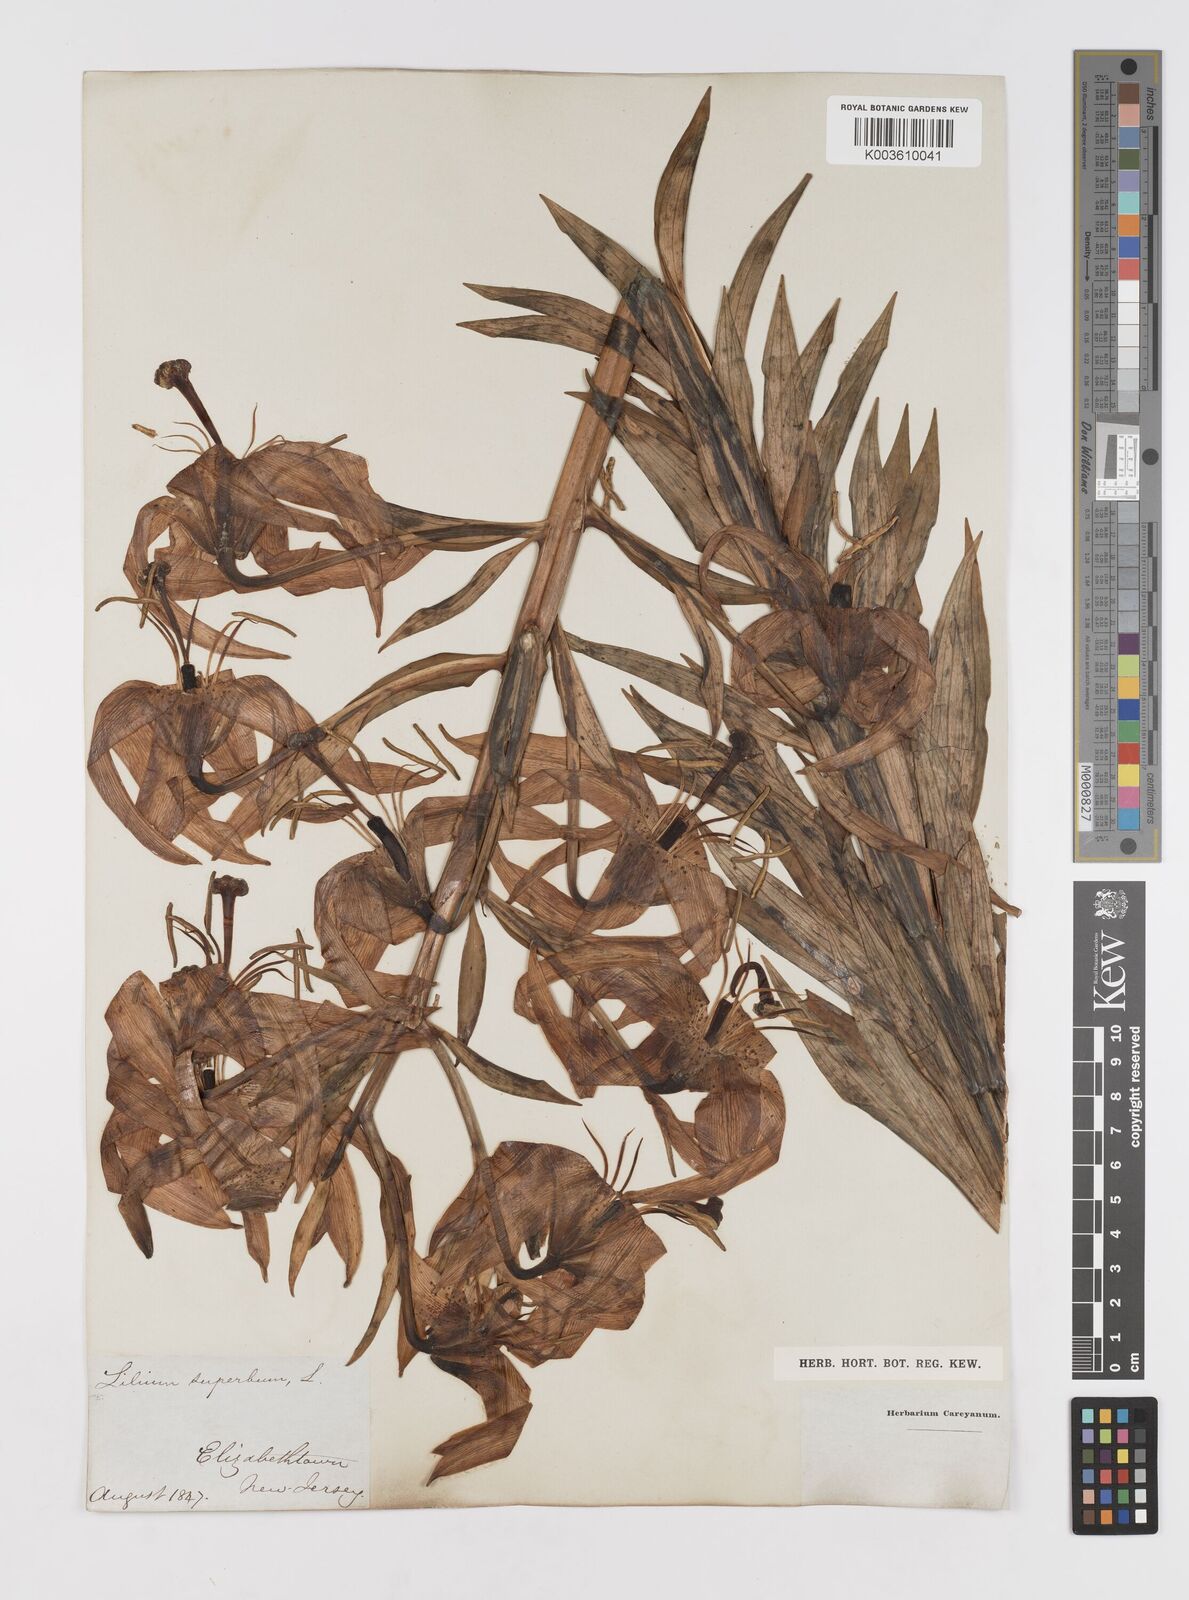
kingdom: Plantae
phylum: Tracheophyta
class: Liliopsida
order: Liliales
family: Liliaceae
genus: Lilium
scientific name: Lilium superbum
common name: American turk's-cap lily
